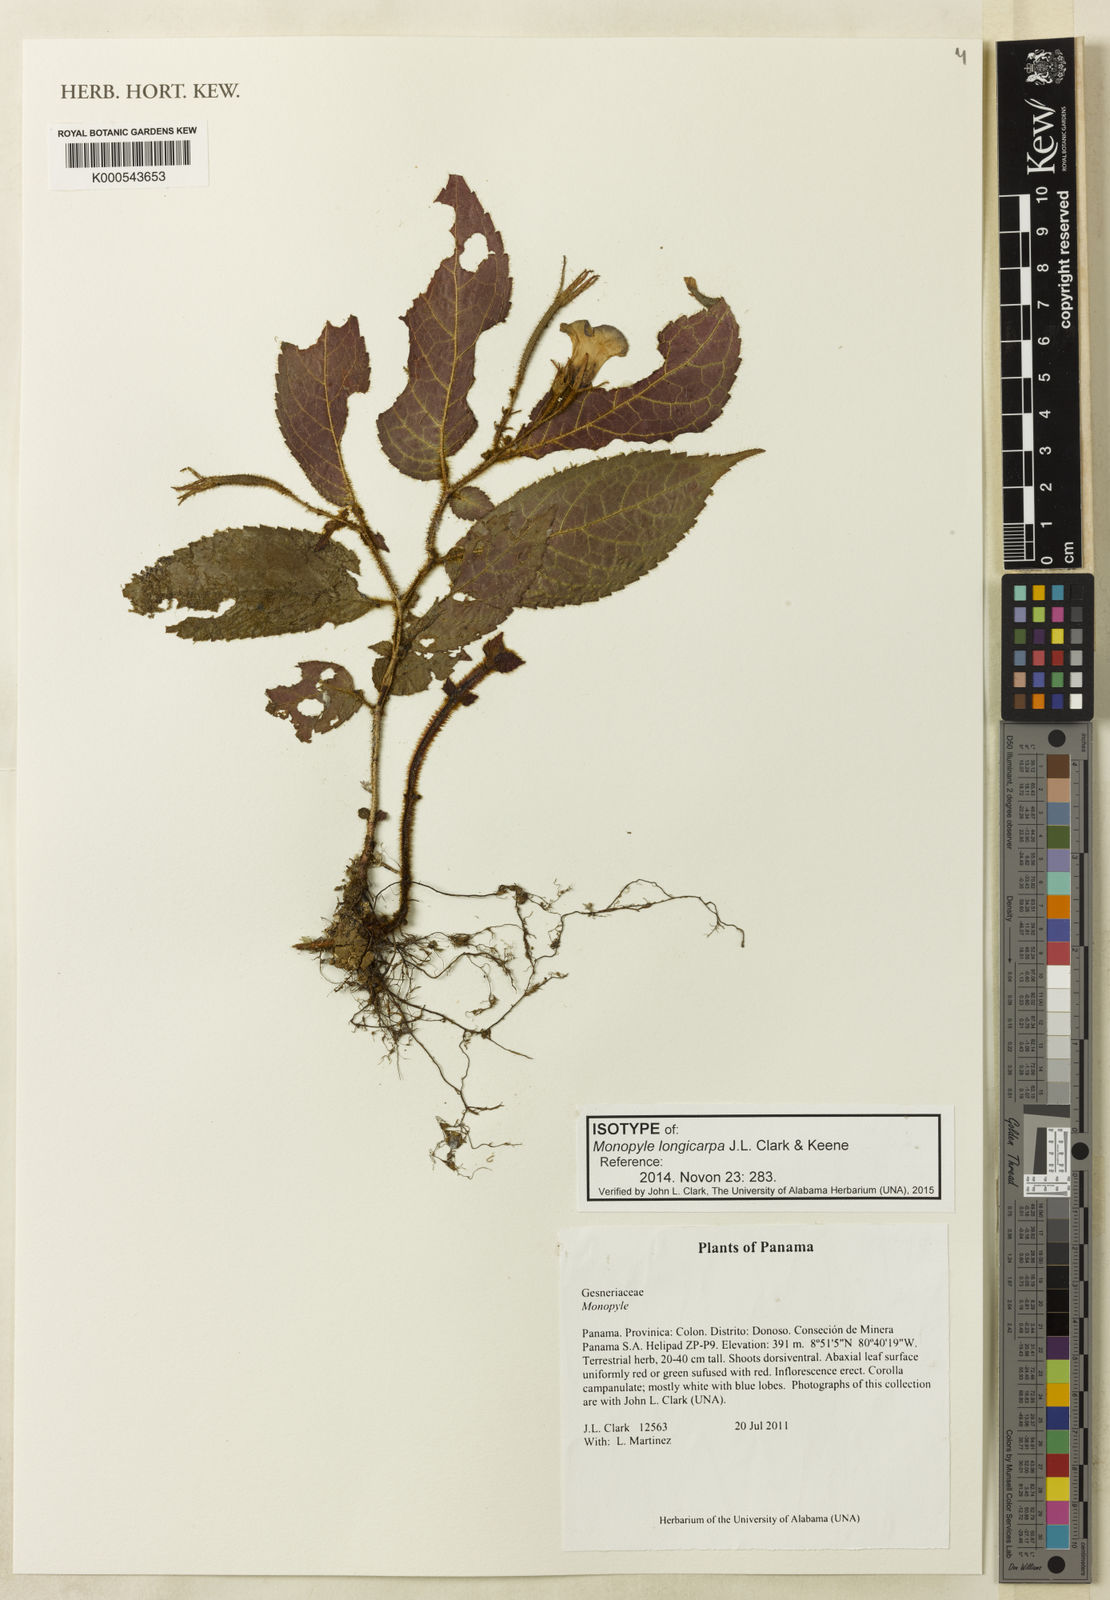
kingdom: Plantae
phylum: Tracheophyta
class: Magnoliopsida
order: Lamiales
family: Gesneriaceae
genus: Monopyle
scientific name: Monopyle longicarpa
